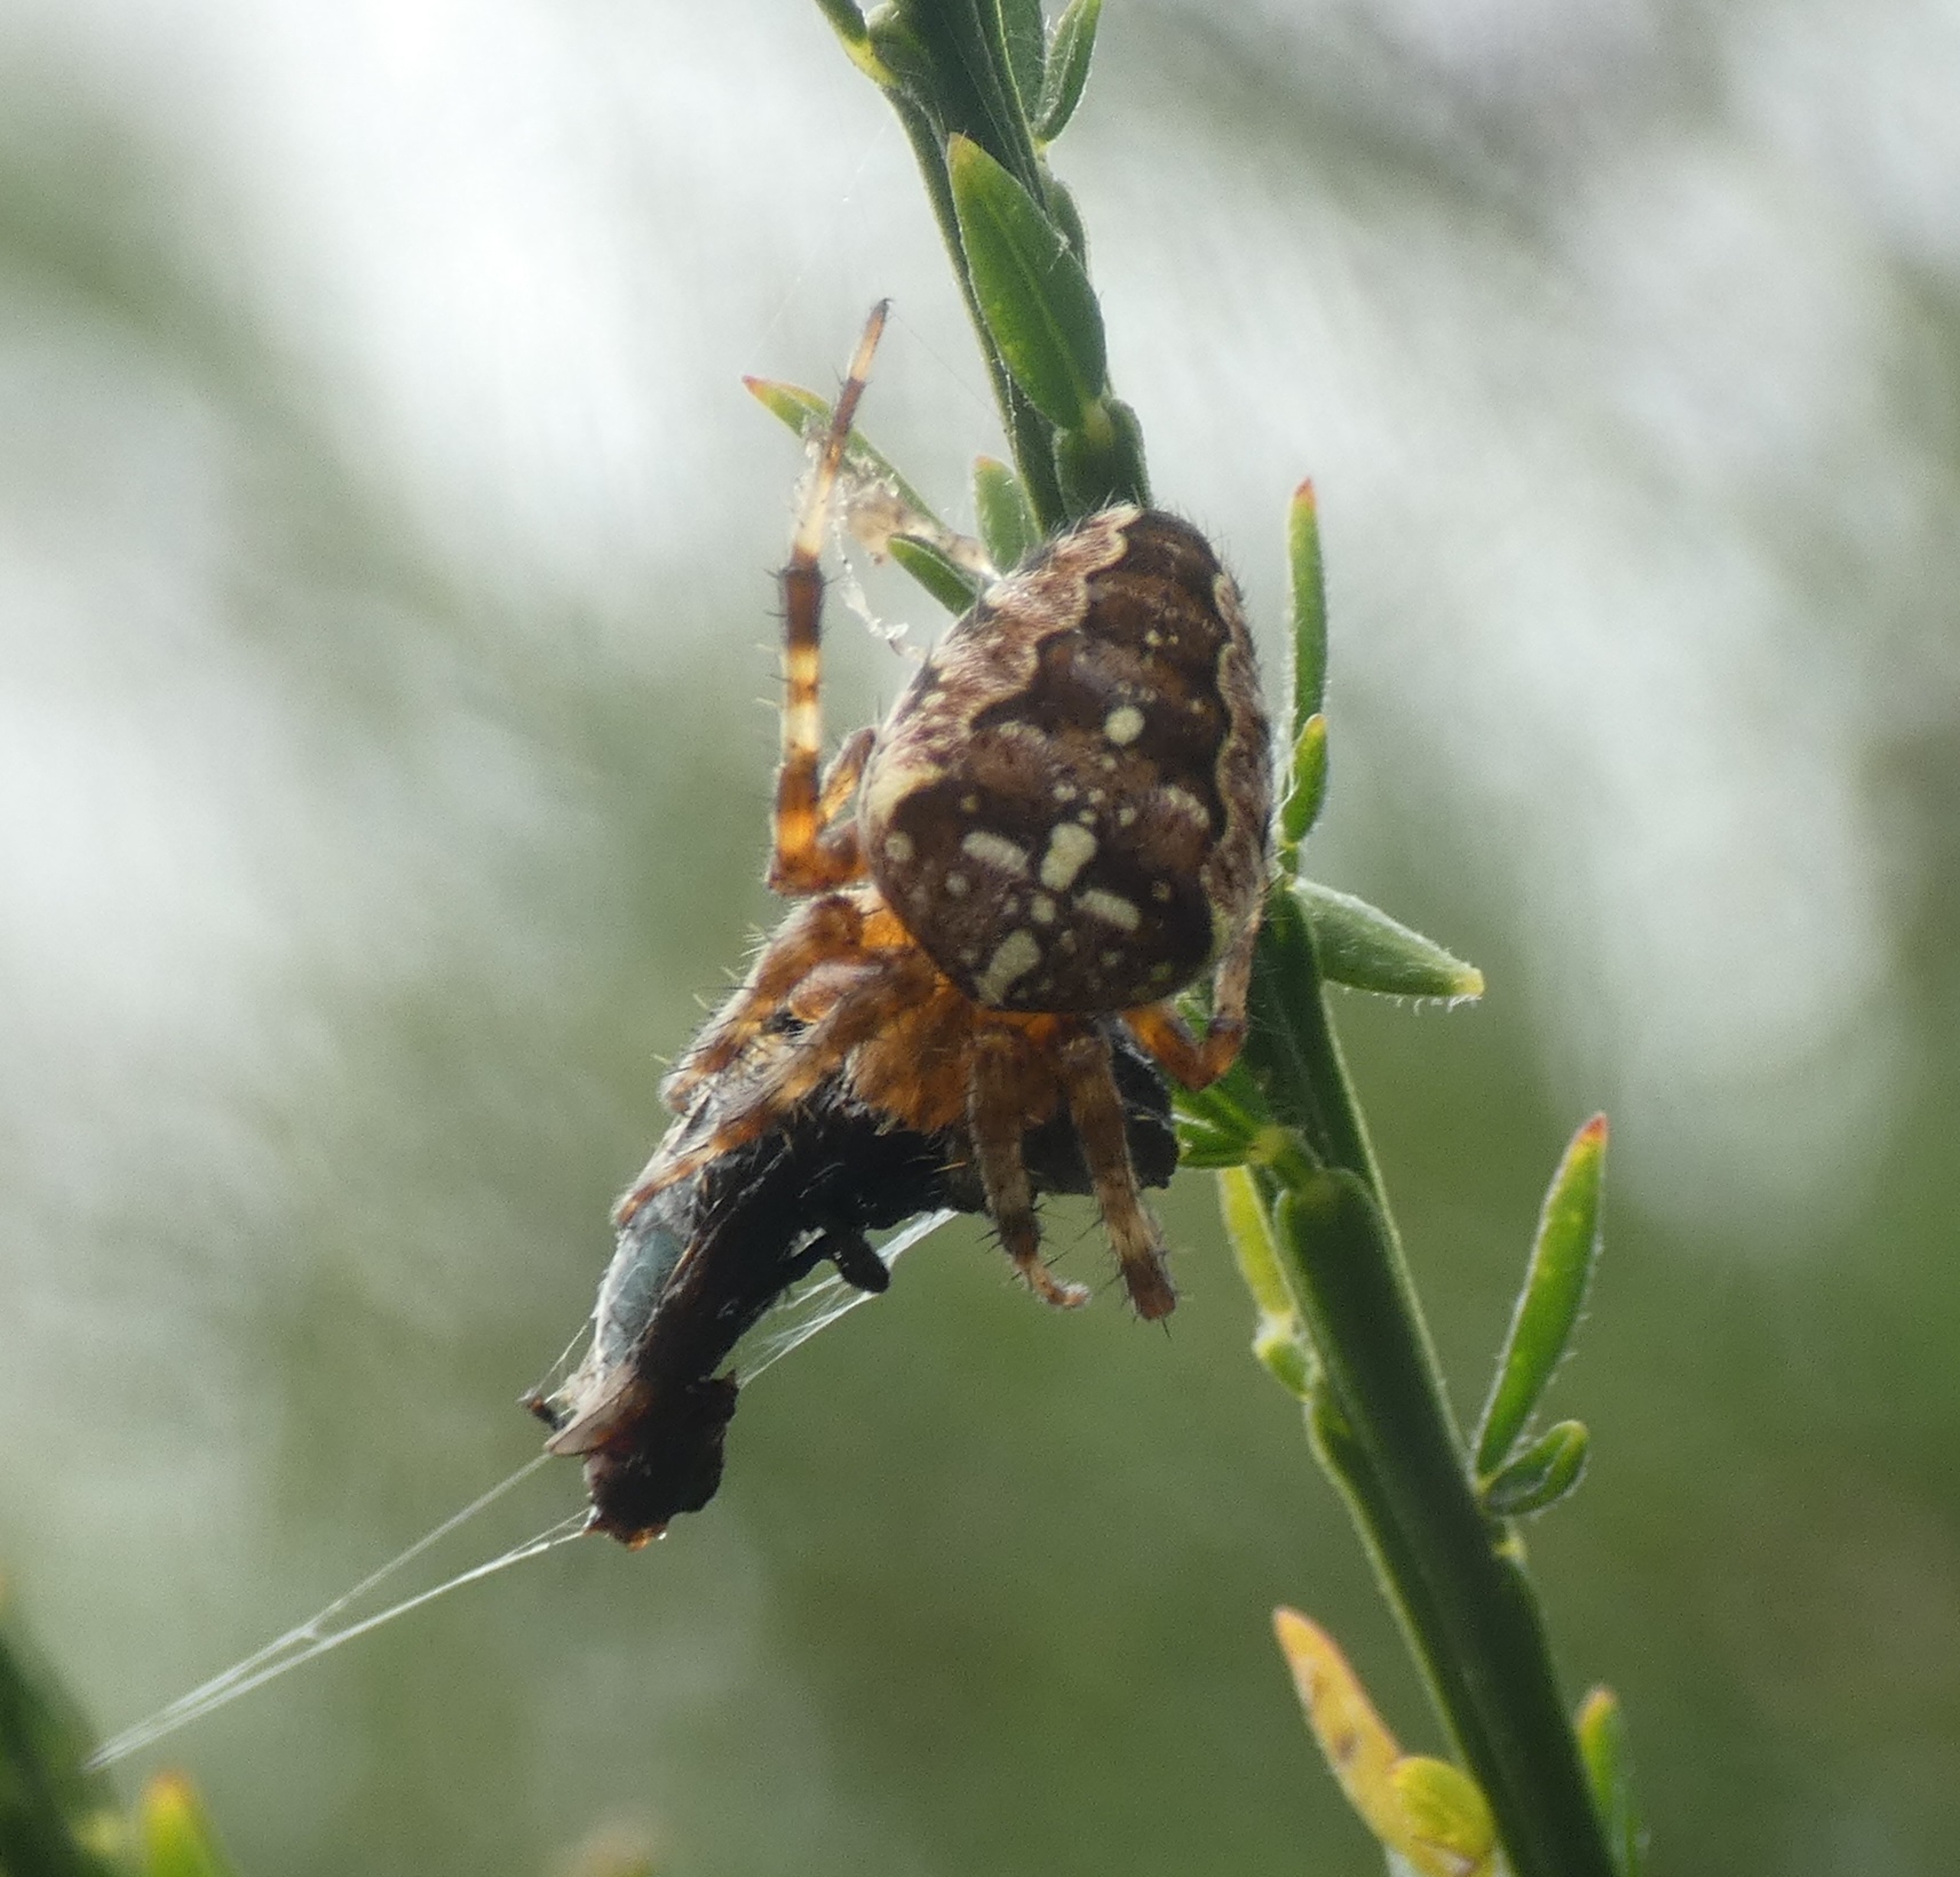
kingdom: Animalia
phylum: Arthropoda
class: Arachnida
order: Araneae
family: Araneidae
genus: Araneus
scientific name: Araneus diadematus
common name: Korsedderkop
